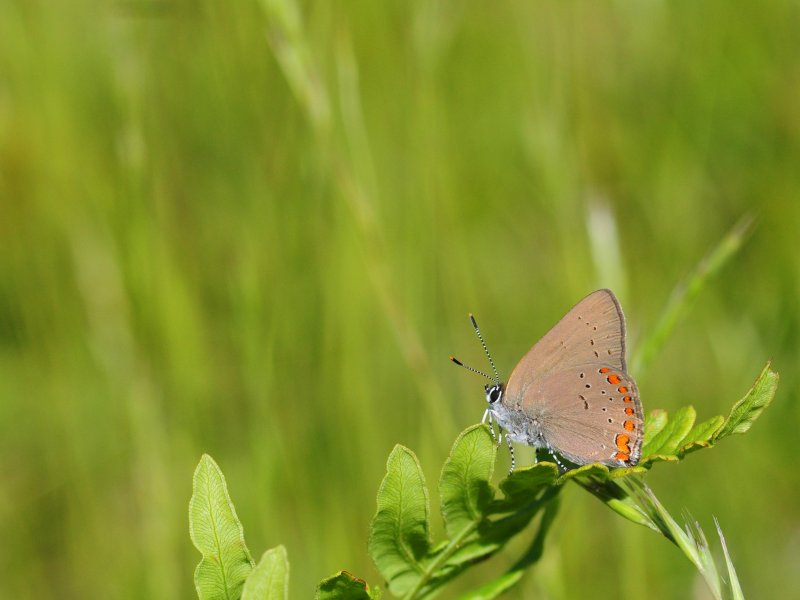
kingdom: Animalia
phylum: Arthropoda
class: Insecta
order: Lepidoptera
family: Lycaenidae
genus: Harkenclenus
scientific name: Harkenclenus titus
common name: Coral Hairstreak
